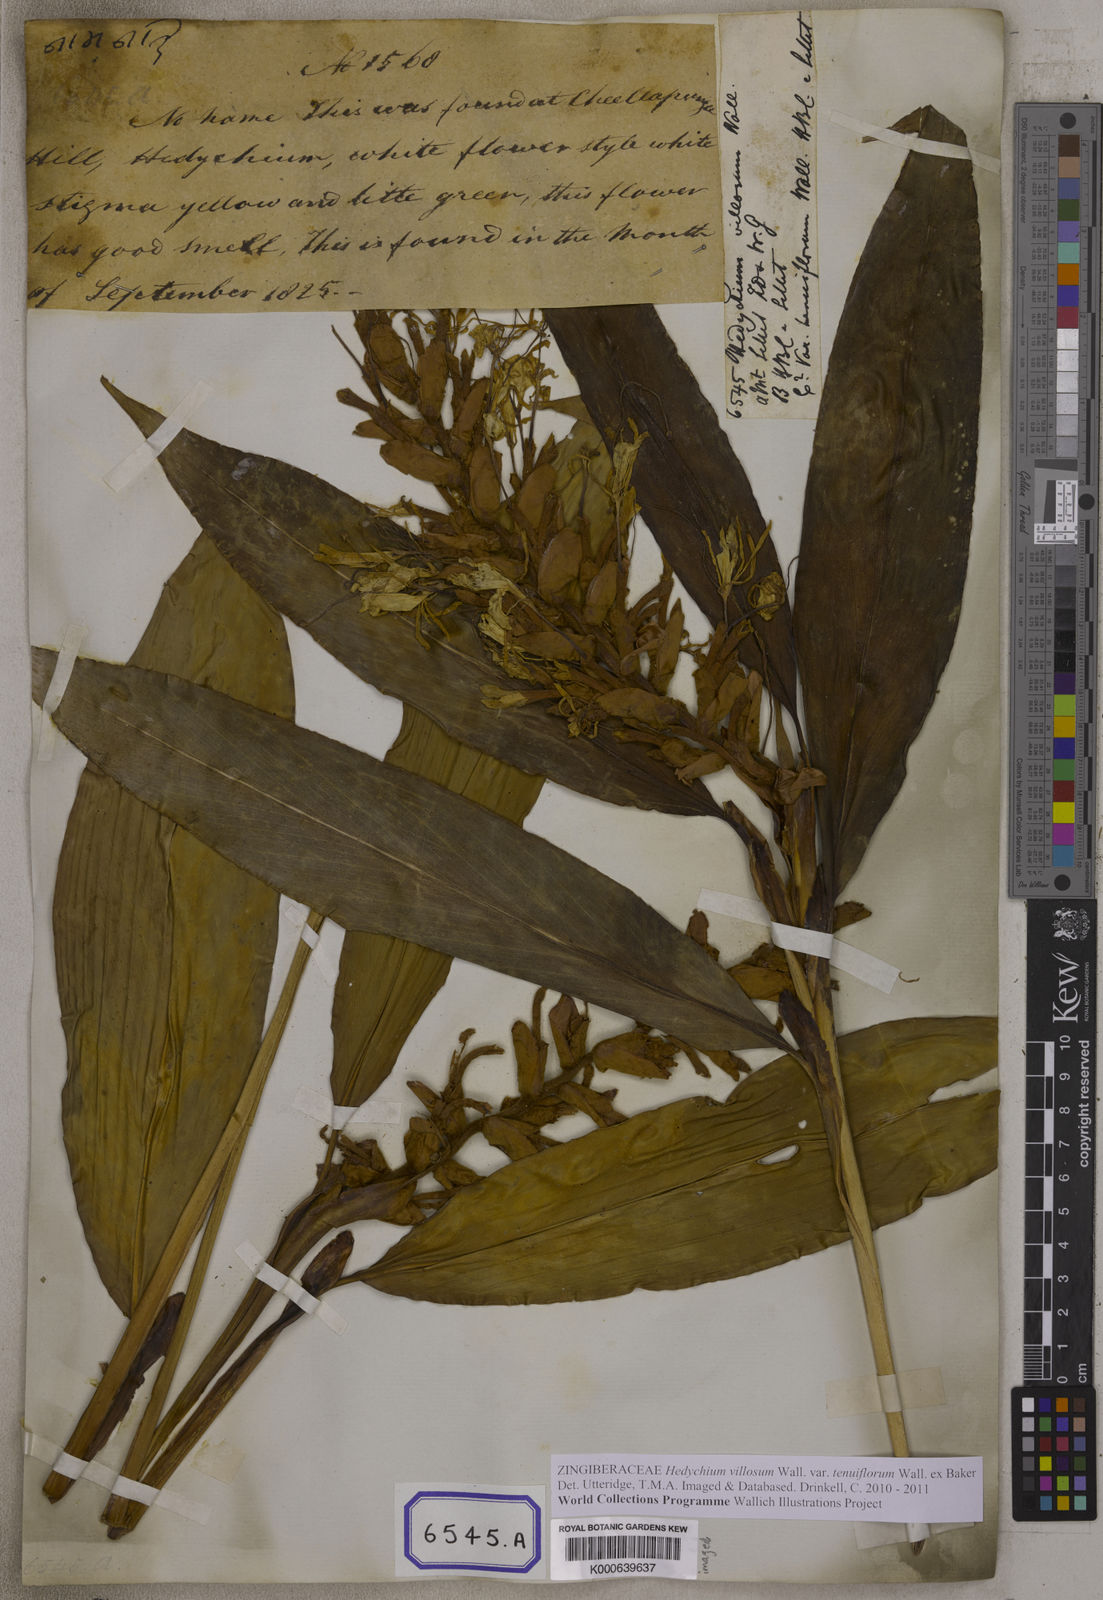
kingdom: Plantae
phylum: Tracheophyta
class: Liliopsida
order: Zingiberales
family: Zingiberaceae
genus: Hedychium
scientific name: Hedychium villosum
